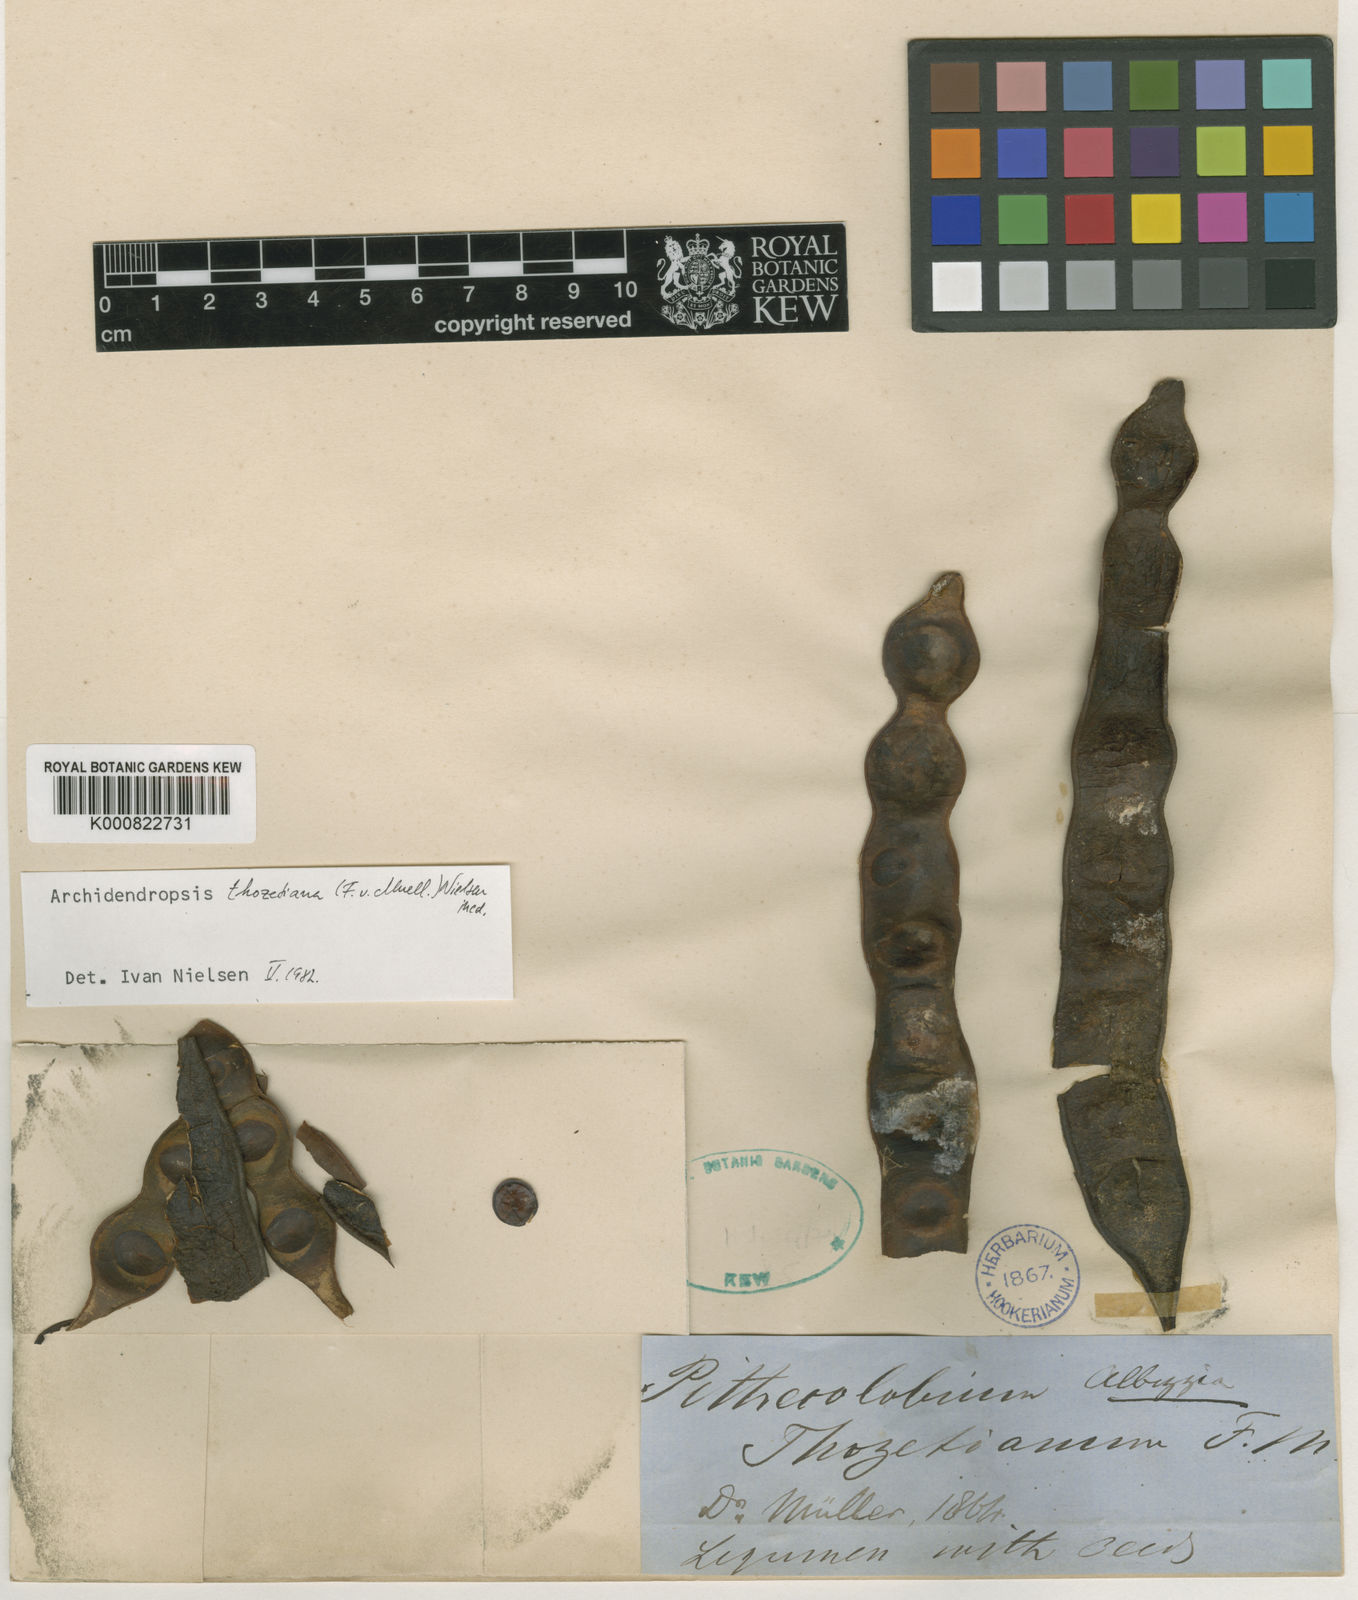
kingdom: Plantae
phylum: Tracheophyta
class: Magnoliopsida
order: Fabales
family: Fabaceae
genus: Archidendropsis
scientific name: Archidendropsis thozetiana
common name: Scrub teatree
